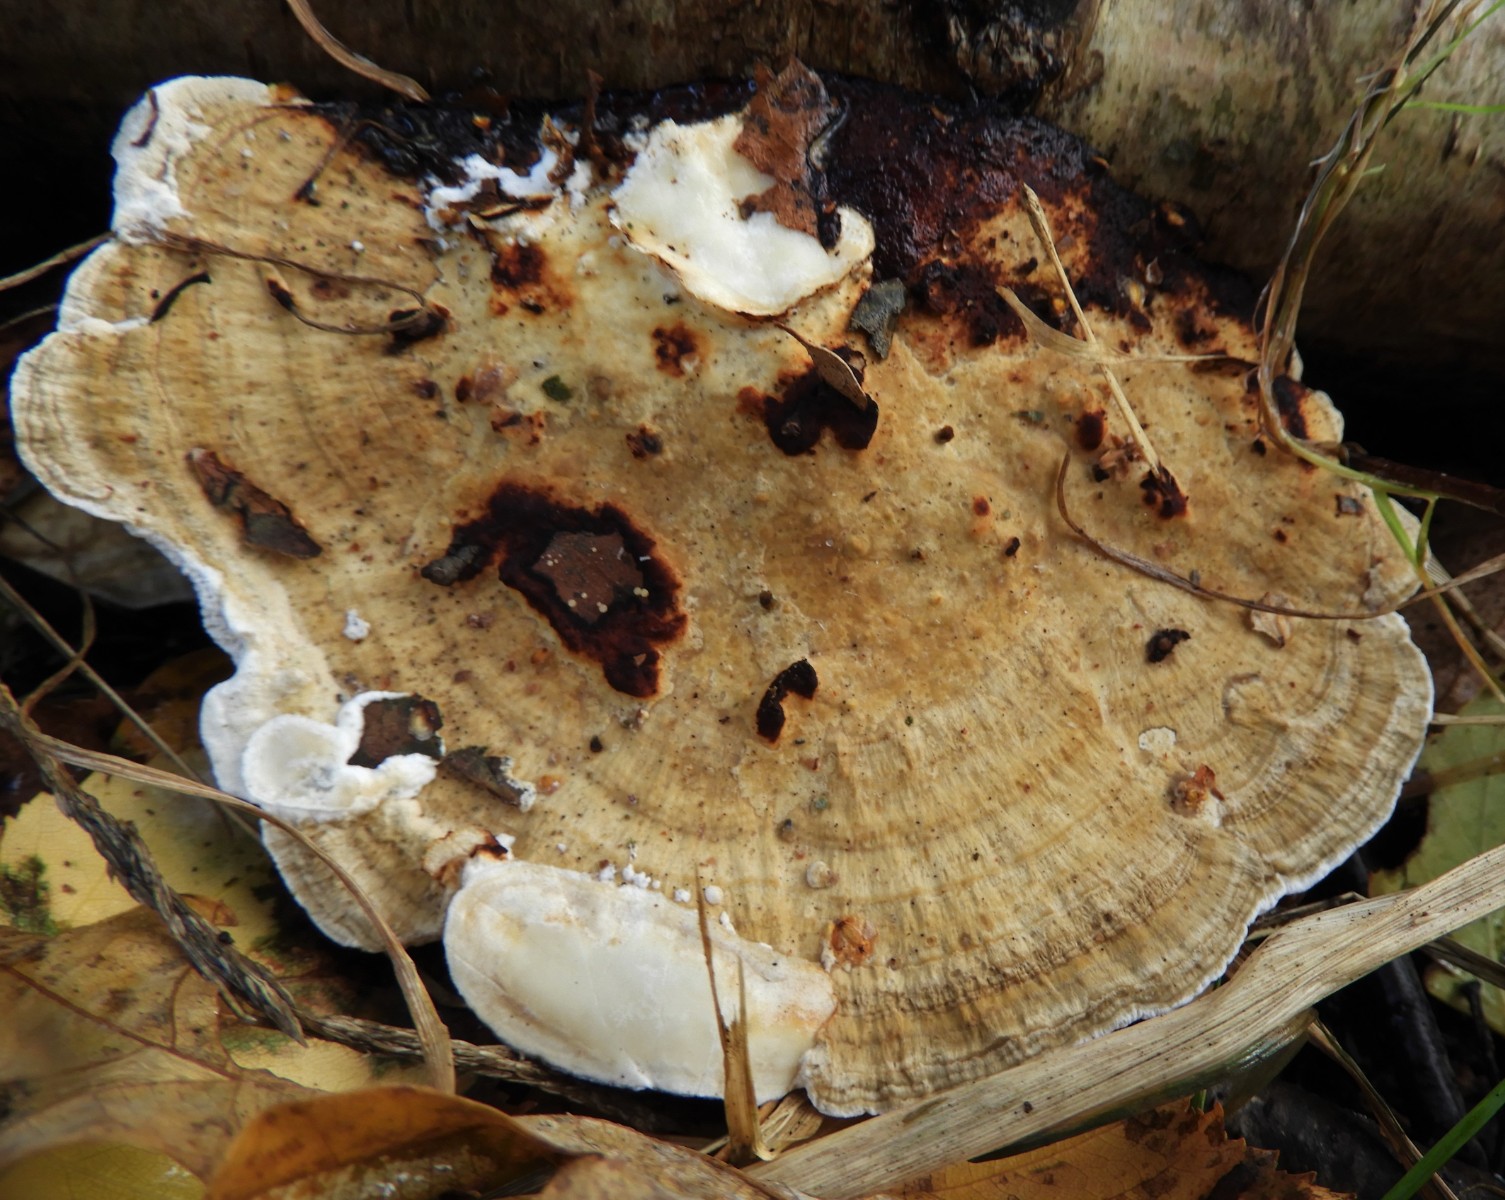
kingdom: Fungi
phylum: Basidiomycota
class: Agaricomycetes
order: Polyporales
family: Polyporaceae
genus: Trametes
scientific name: Trametes ochracea
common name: bæltet læderporesvamp
